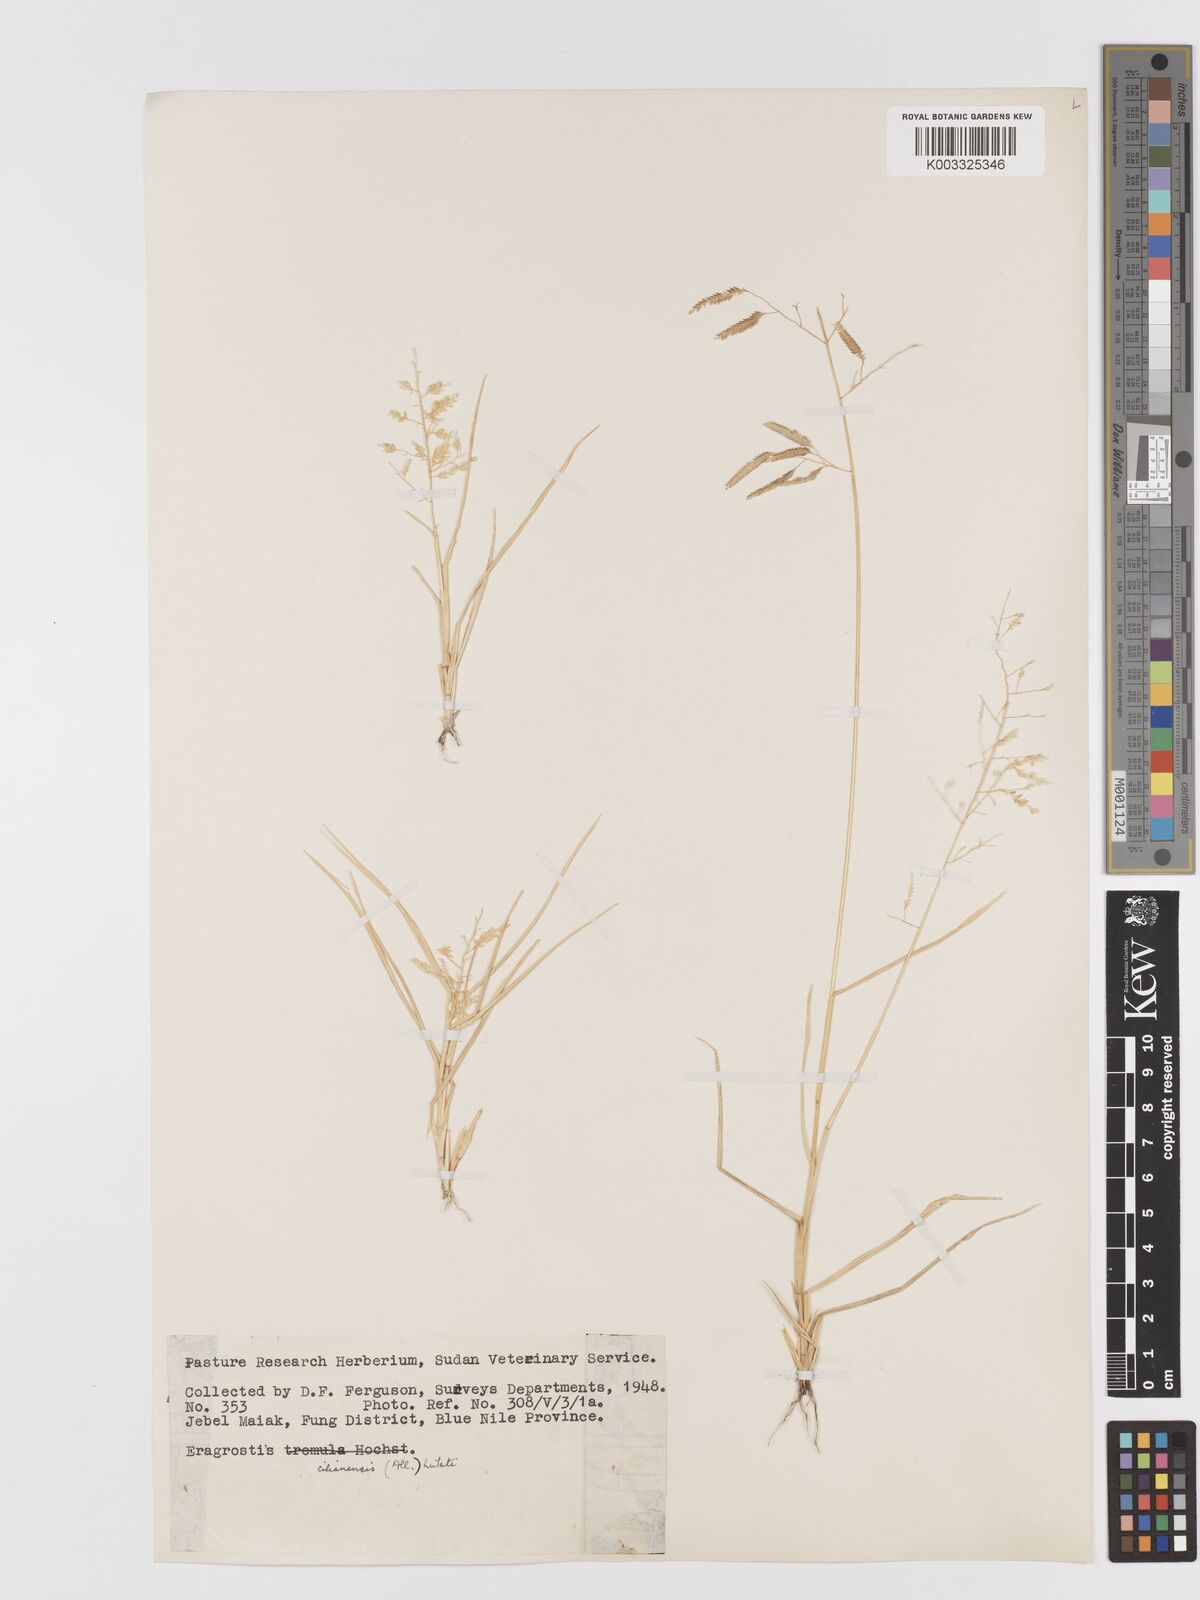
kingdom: Plantae
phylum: Tracheophyta
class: Liliopsida
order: Poales
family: Poaceae
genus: Eragrostis
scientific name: Eragrostis cilianensis
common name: Stinkgrass
